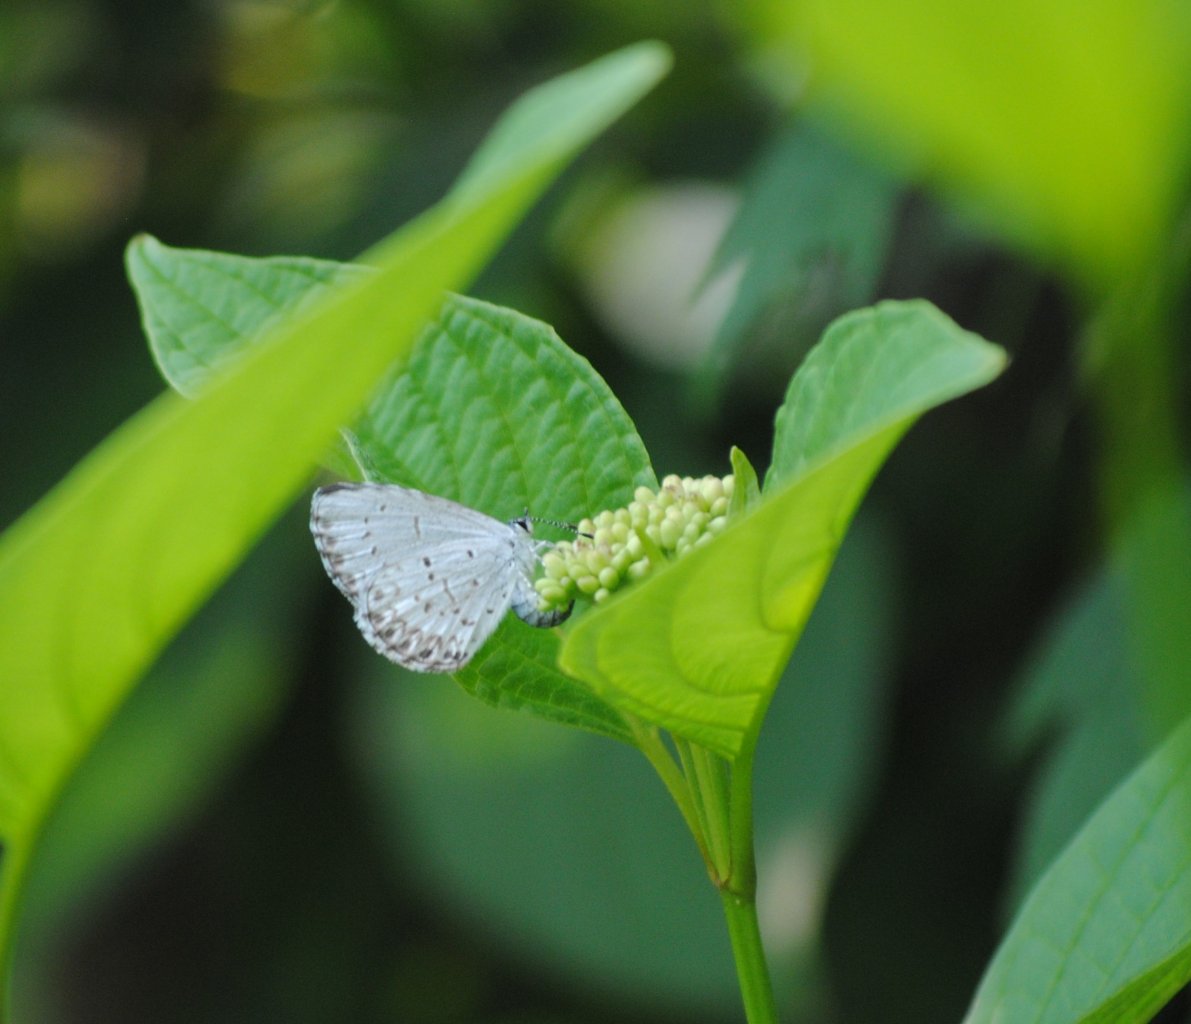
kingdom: Animalia
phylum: Arthropoda
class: Insecta
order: Lepidoptera
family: Lycaenidae
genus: Celastrina
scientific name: Celastrina lucia
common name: Northern Spring Azure
